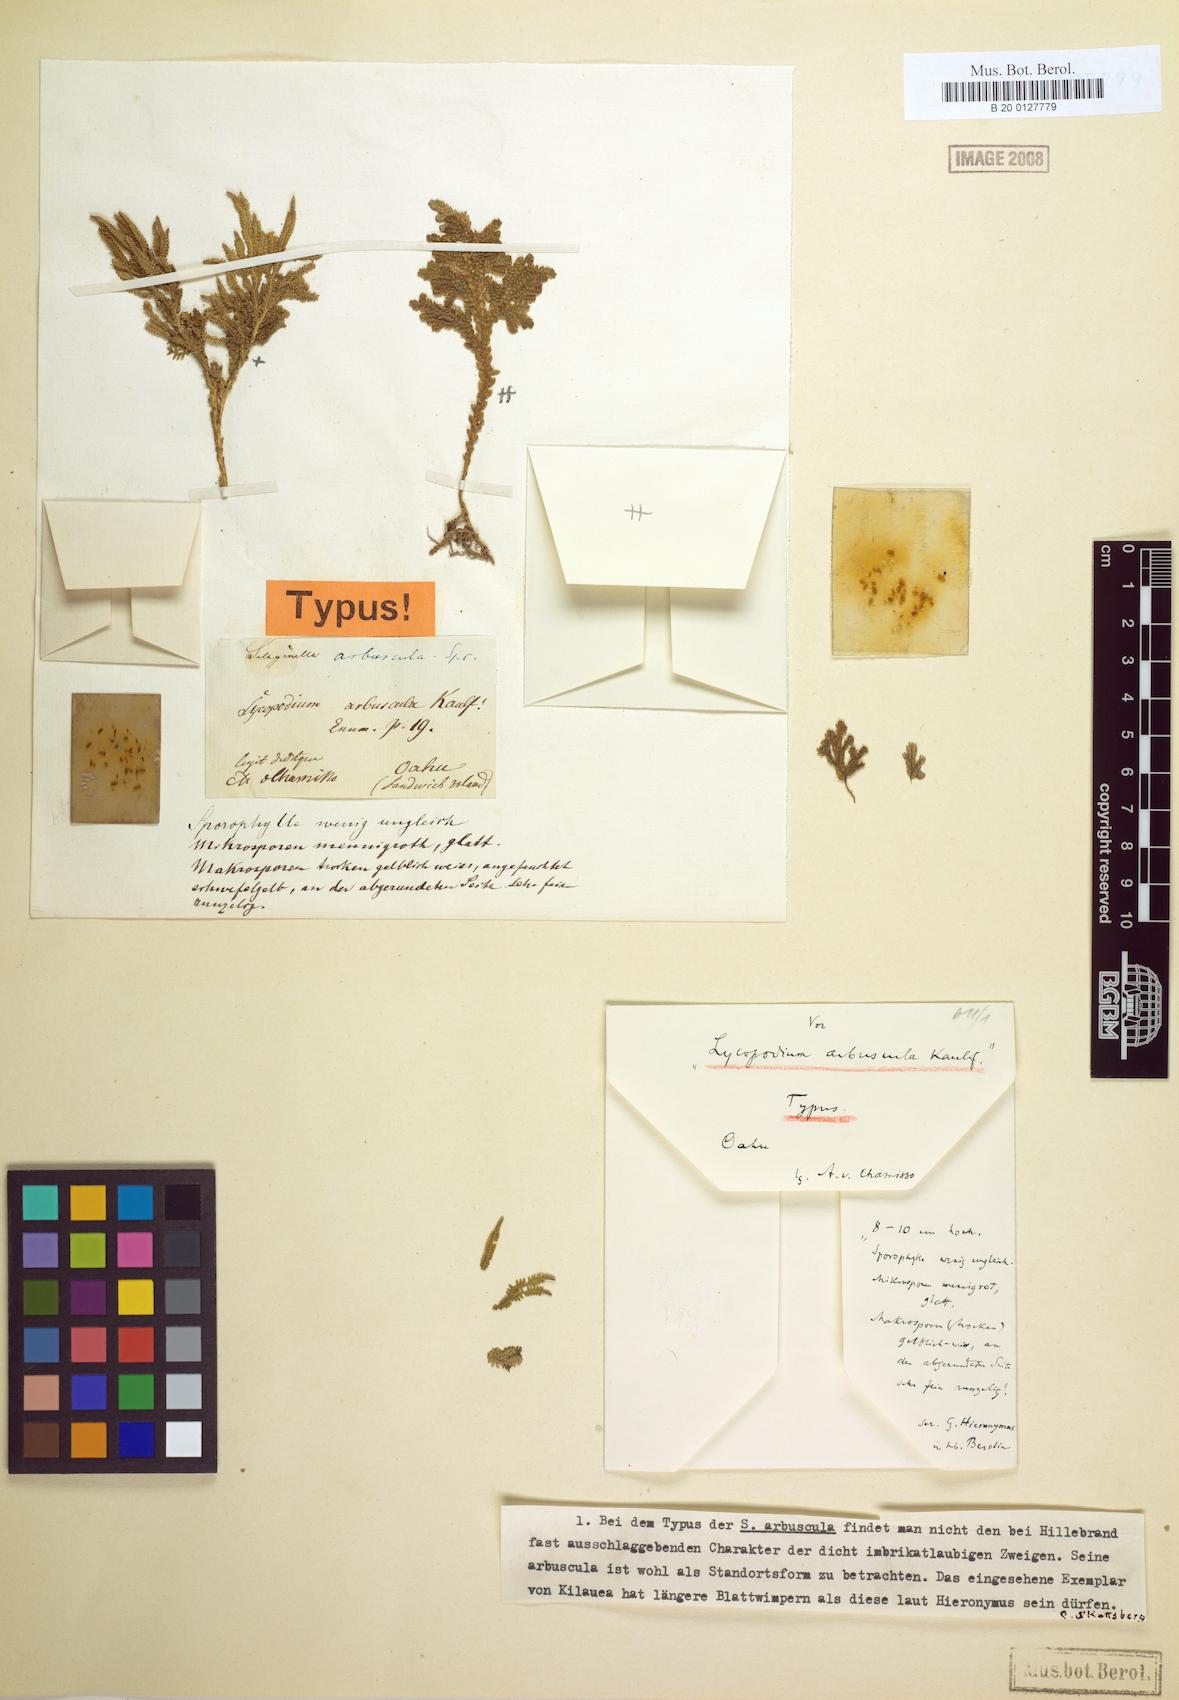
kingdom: Plantae
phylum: Tracheophyta
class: Lycopodiopsida
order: Selaginellales
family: Selaginellaceae
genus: Selaginella
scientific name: Selaginella arbuscula
